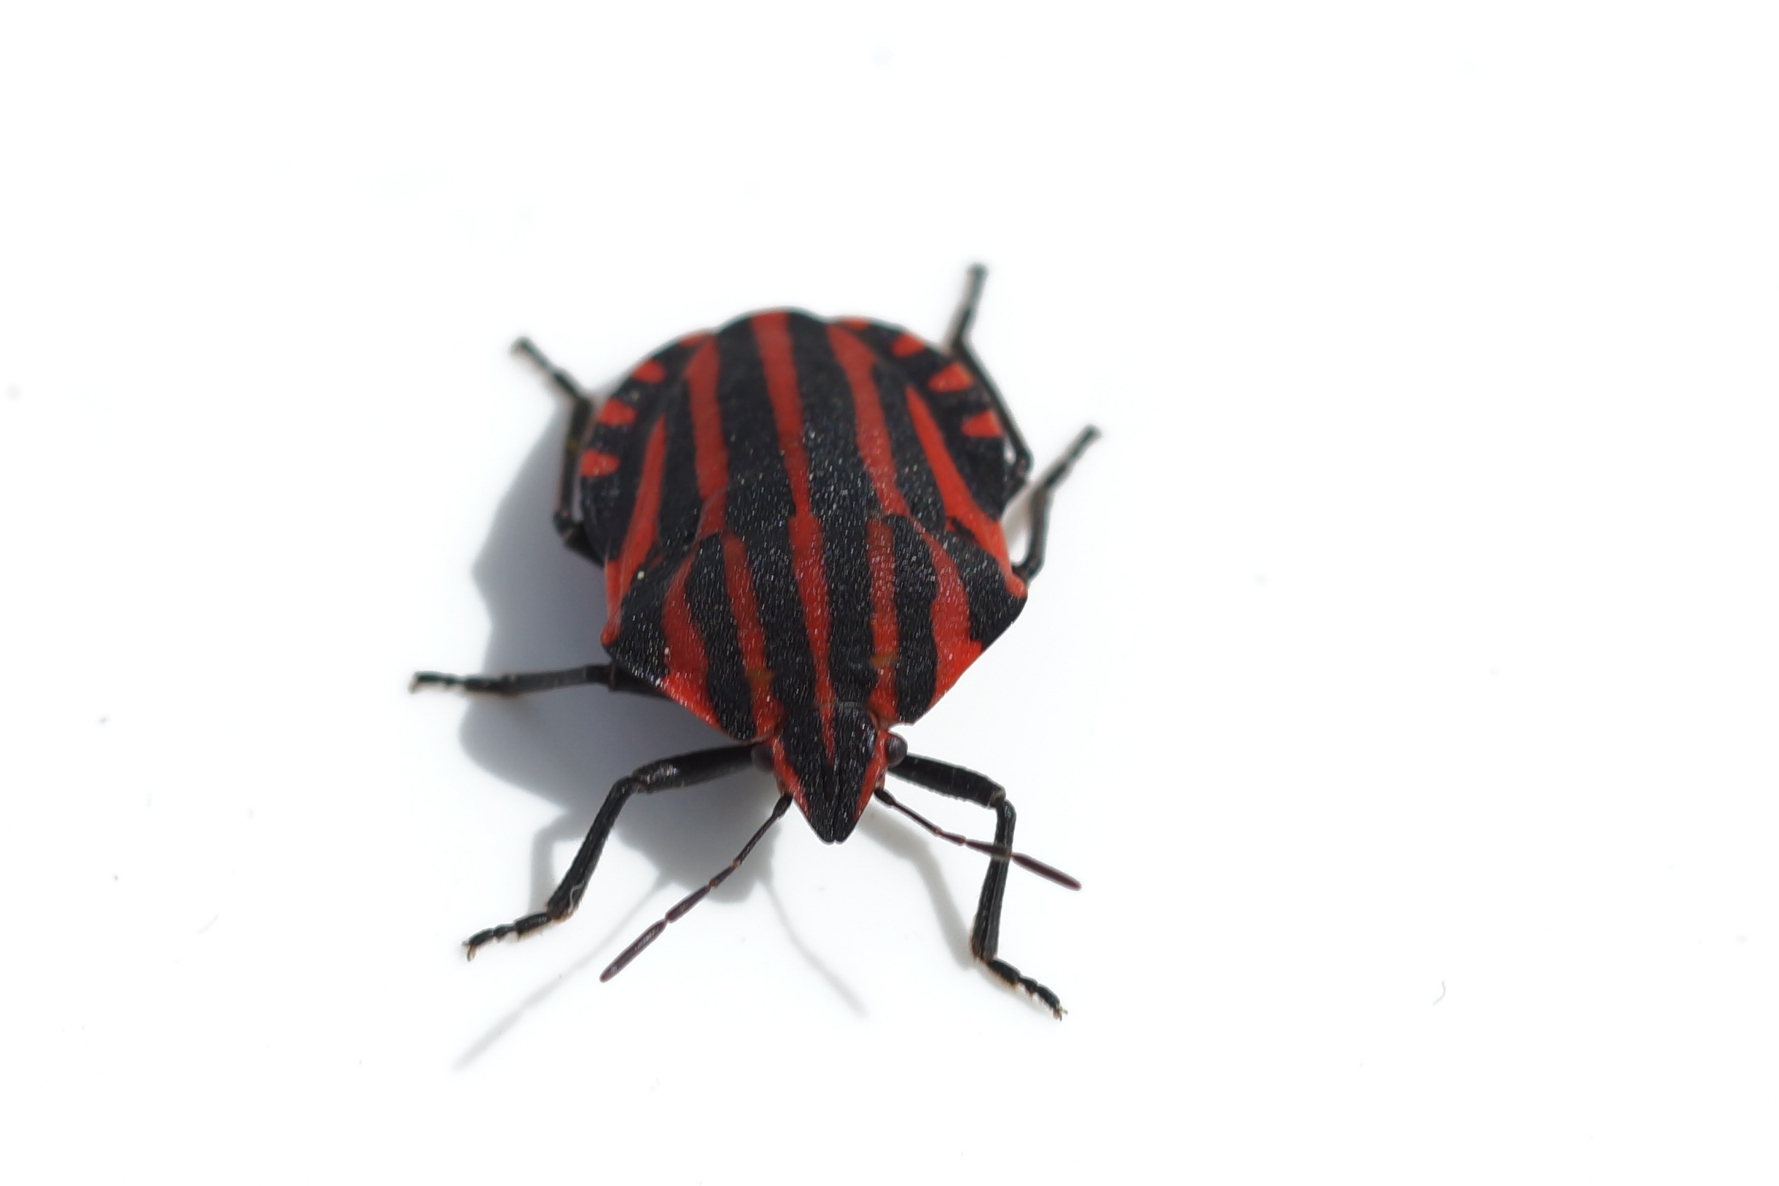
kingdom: Animalia
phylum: Arthropoda
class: Insecta
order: Hemiptera
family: Pentatomidae
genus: Graphosoma
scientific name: Graphosoma italicum
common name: Stribetæge
